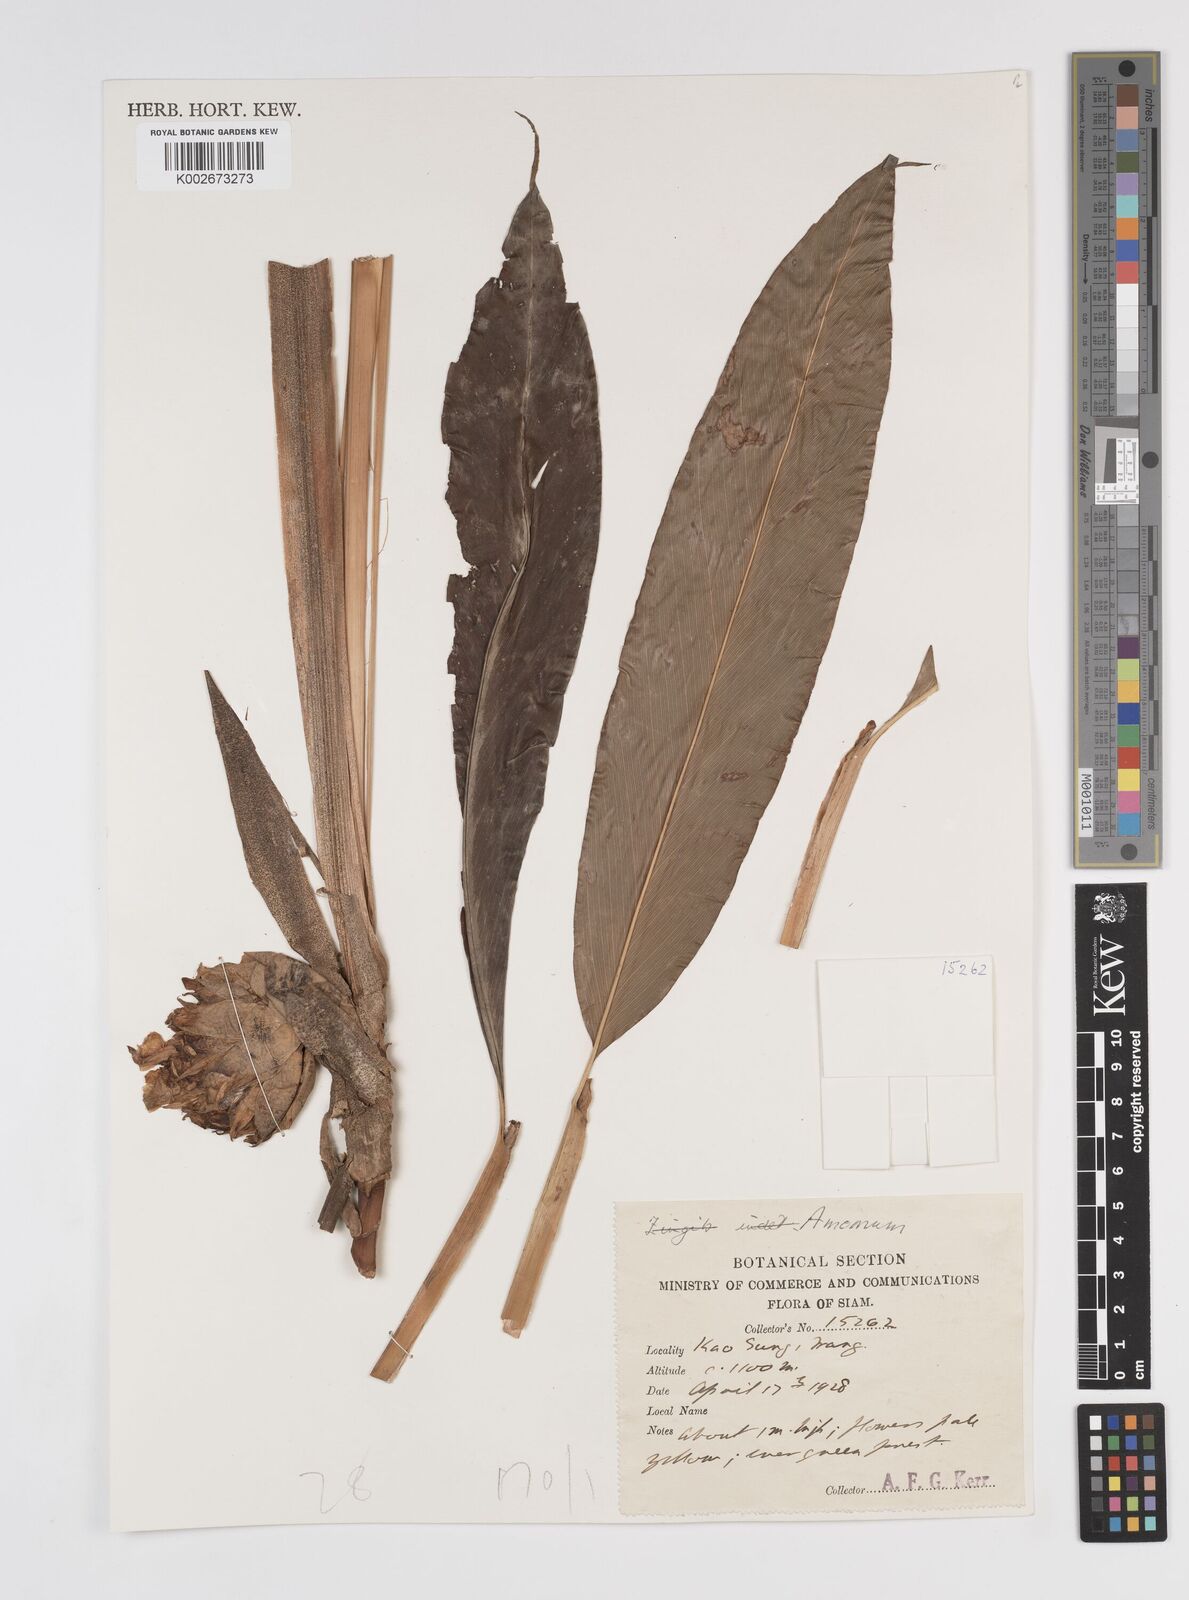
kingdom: Plantae
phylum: Tracheophyta
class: Liliopsida
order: Zingiberales
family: Zingiberaceae
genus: Amomum
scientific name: Amomum
